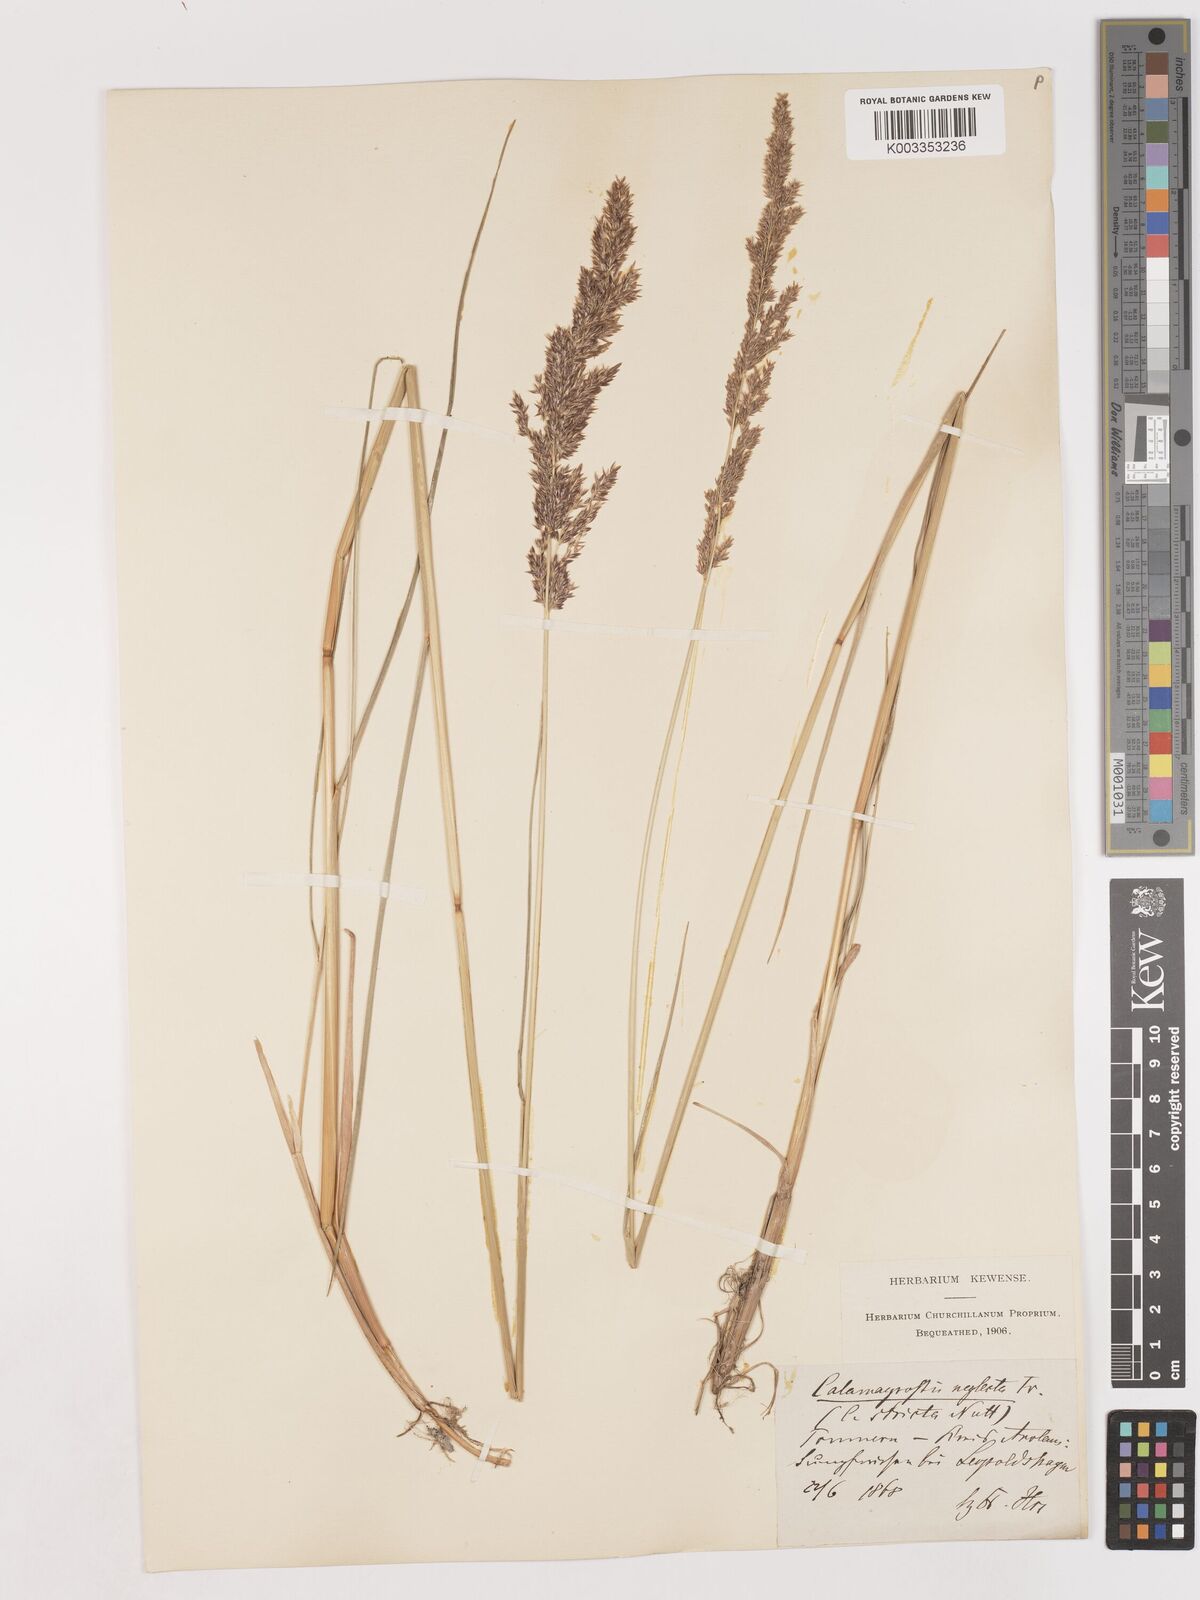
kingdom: Plantae
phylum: Tracheophyta
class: Liliopsida
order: Poales
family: Poaceae
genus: Cinnagrostis
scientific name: Cinnagrostis recta
